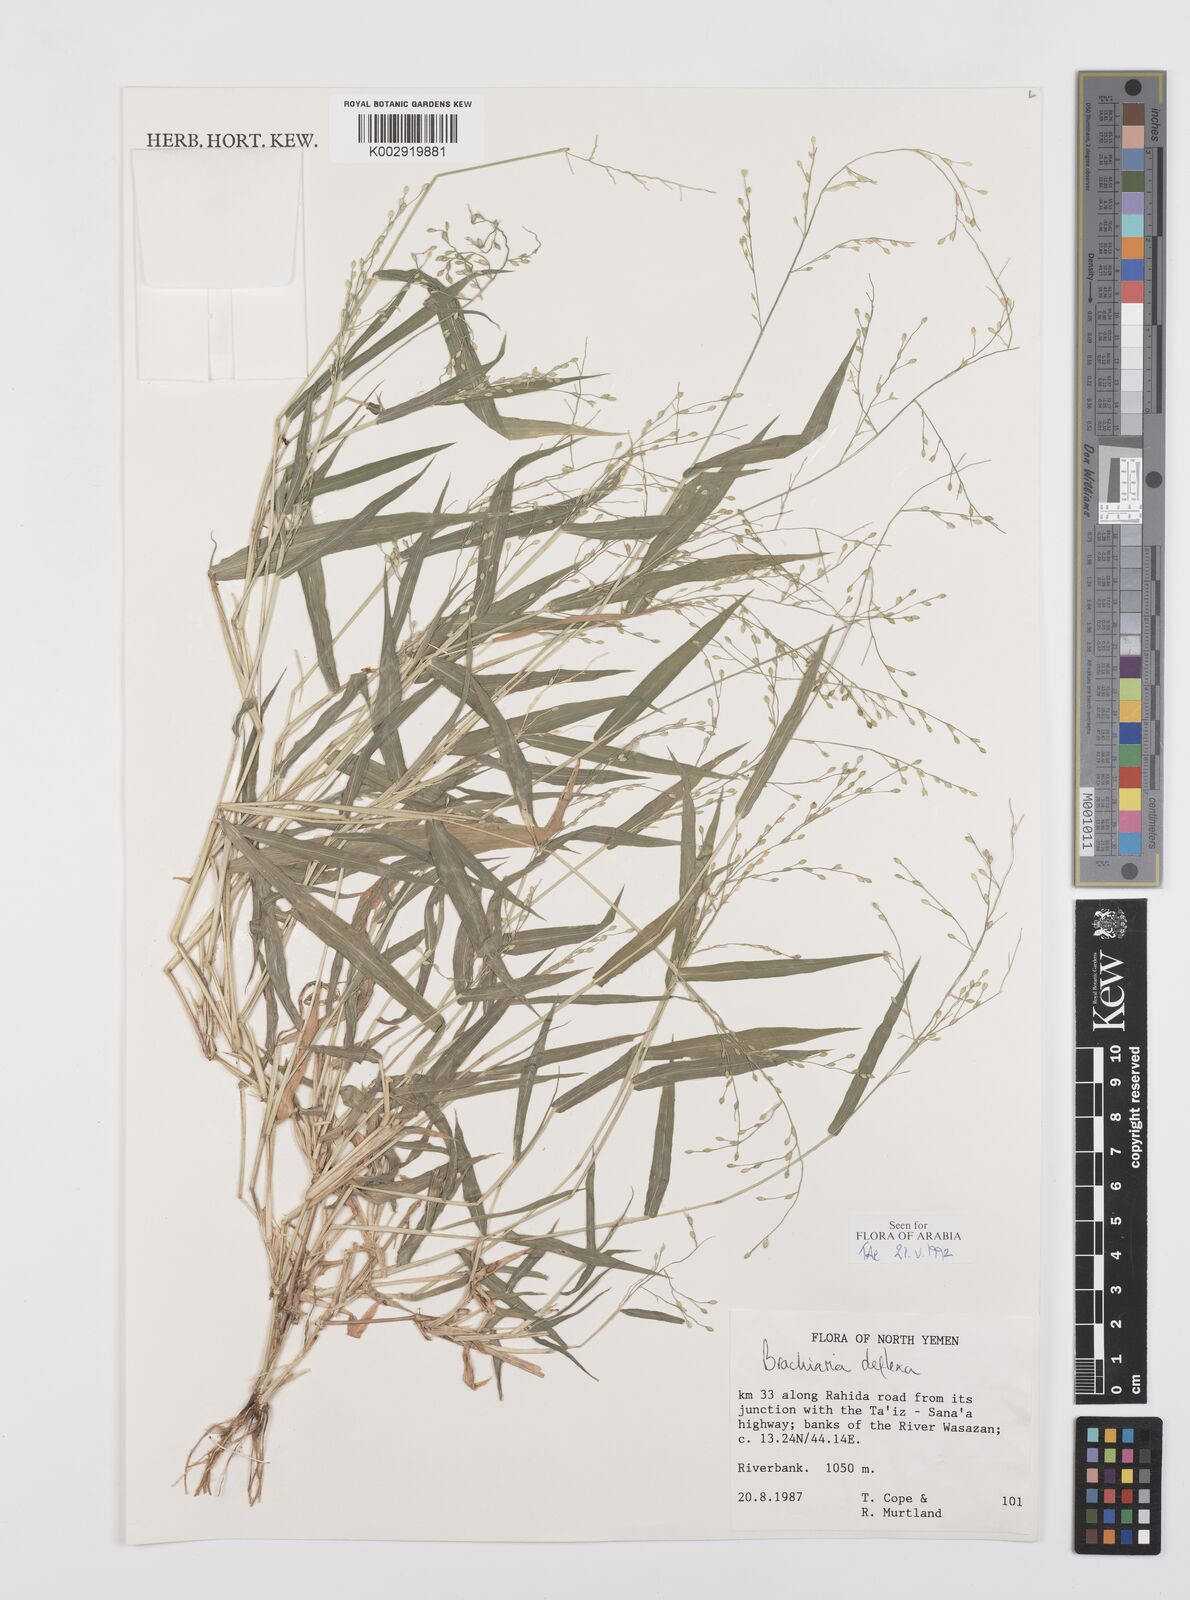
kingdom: Plantae
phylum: Tracheophyta
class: Liliopsida
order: Poales
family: Poaceae
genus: Urochloa
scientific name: Urochloa deflexa
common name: Guinea millet
